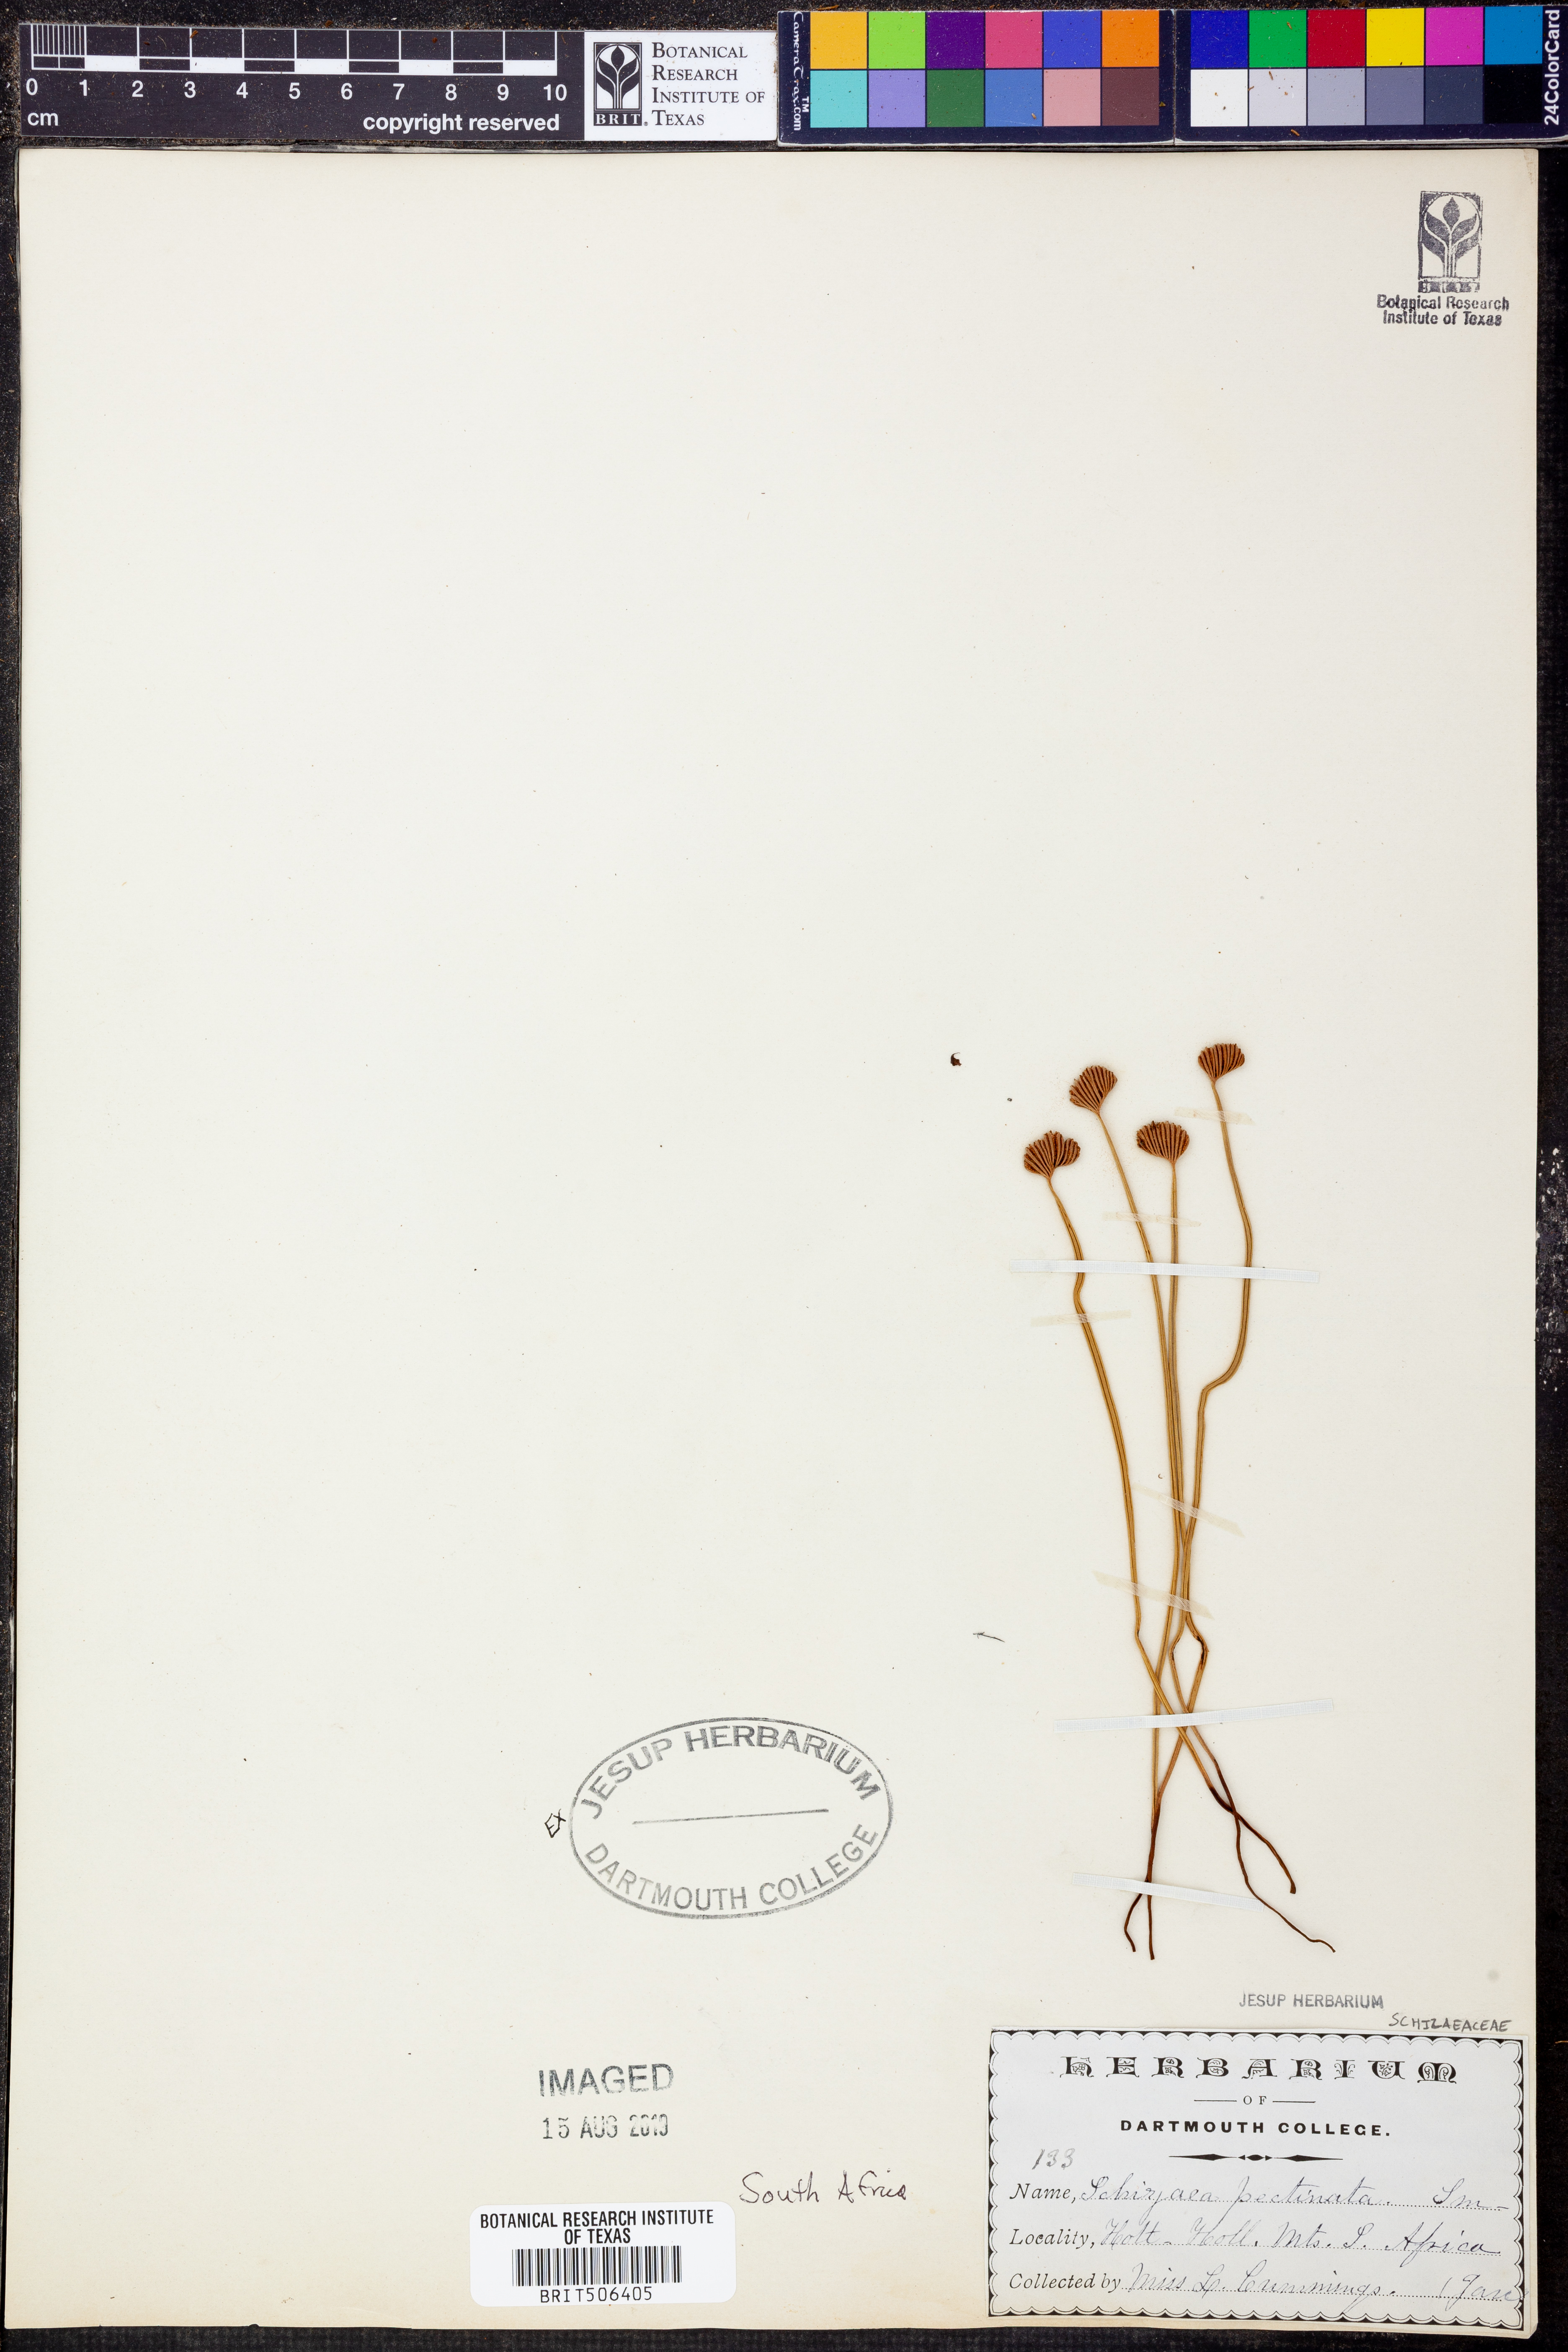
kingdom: Plantae
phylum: Tracheophyta
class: Polypodiopsida
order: Schizaeales
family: Schizaeaceae
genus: Schizaea
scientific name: Schizaea pectinata
